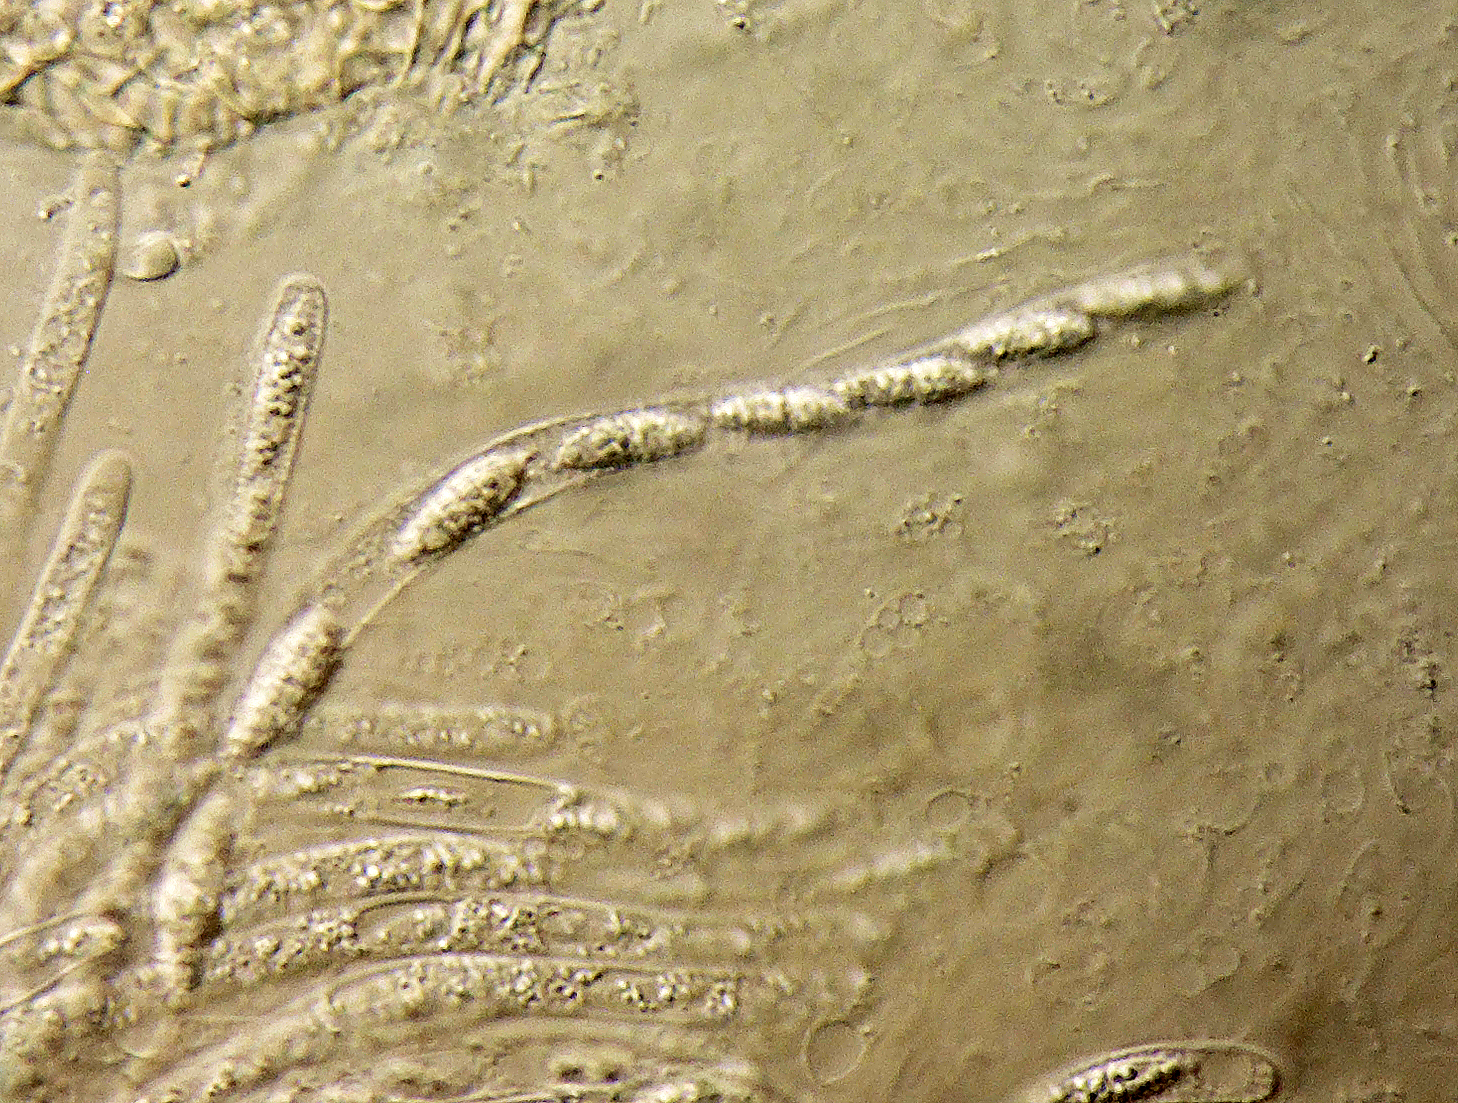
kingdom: Fungi
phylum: Ascomycota
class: Sordariomycetes
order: Hypocreales
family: Hypocreaceae
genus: Sphaerostilbella
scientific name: Sphaerostilbella broomeana
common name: rodfordærver-snylteskorpe
